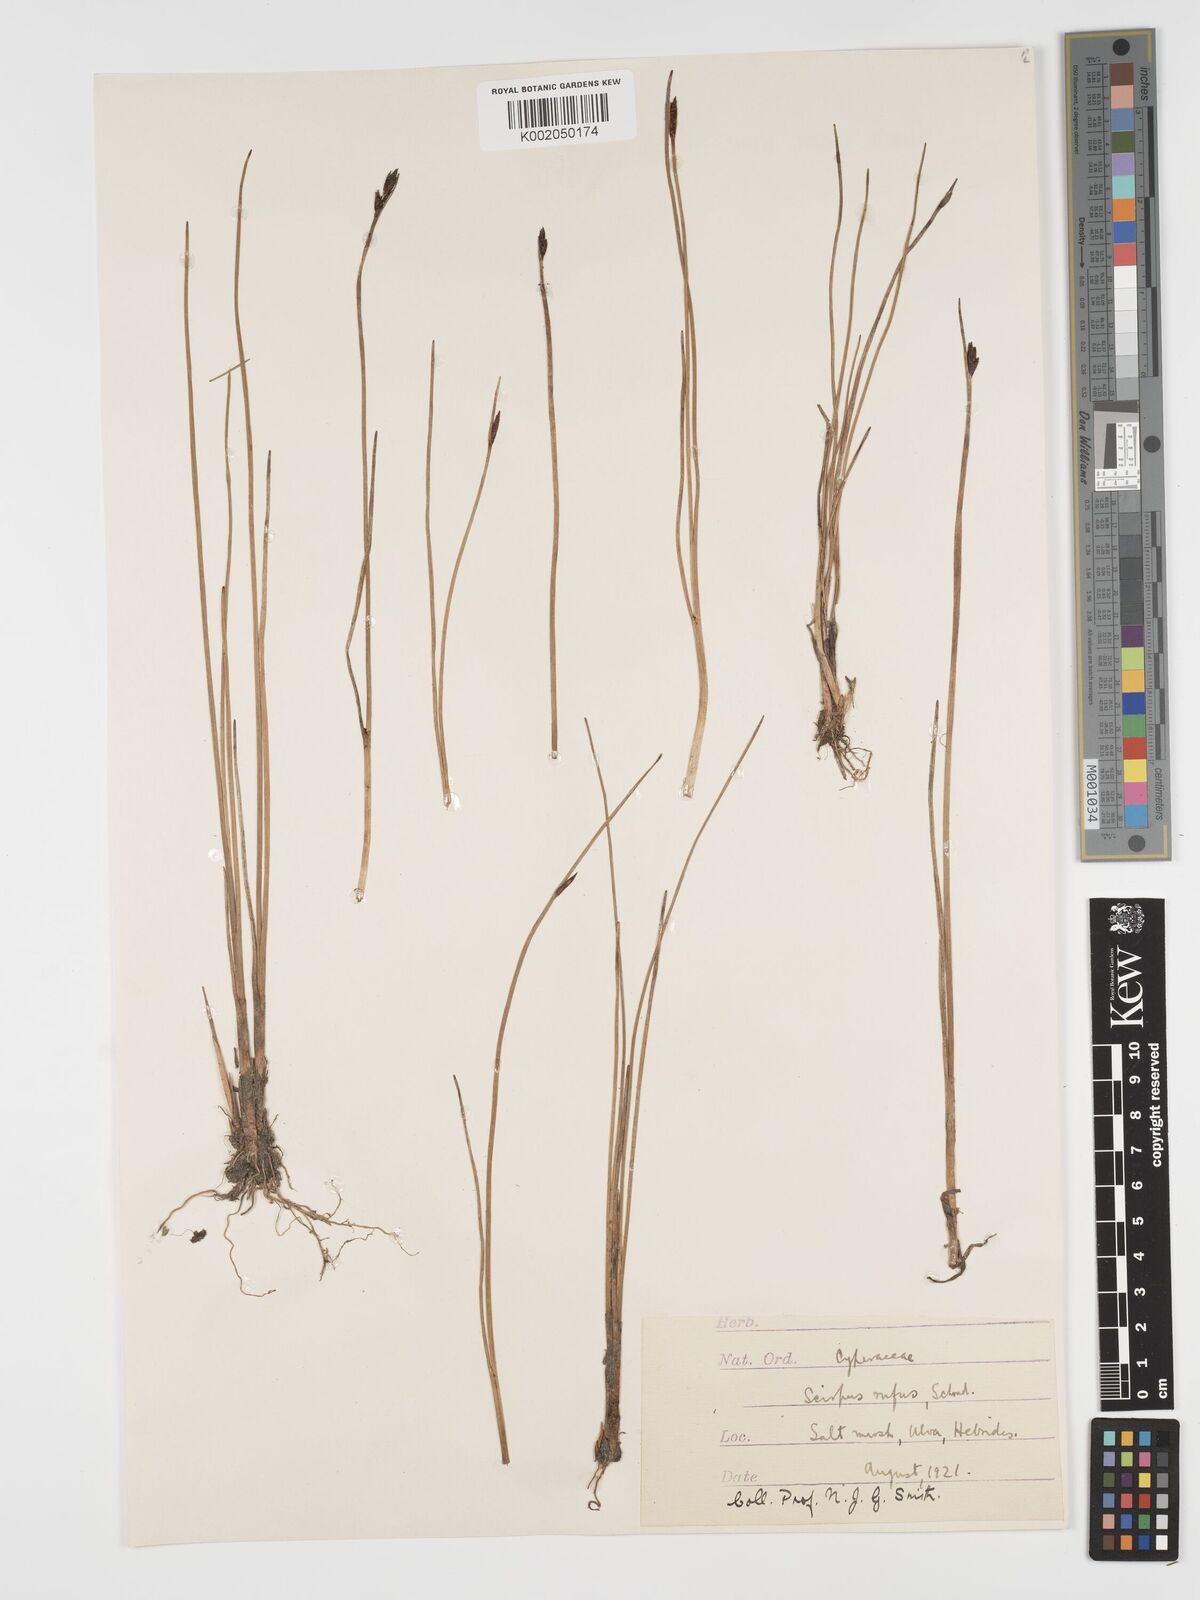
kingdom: Plantae
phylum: Tracheophyta
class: Liliopsida
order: Poales
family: Cyperaceae
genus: Blysmus
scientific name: Blysmus rufus
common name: Saltmarsh flat-sedge
